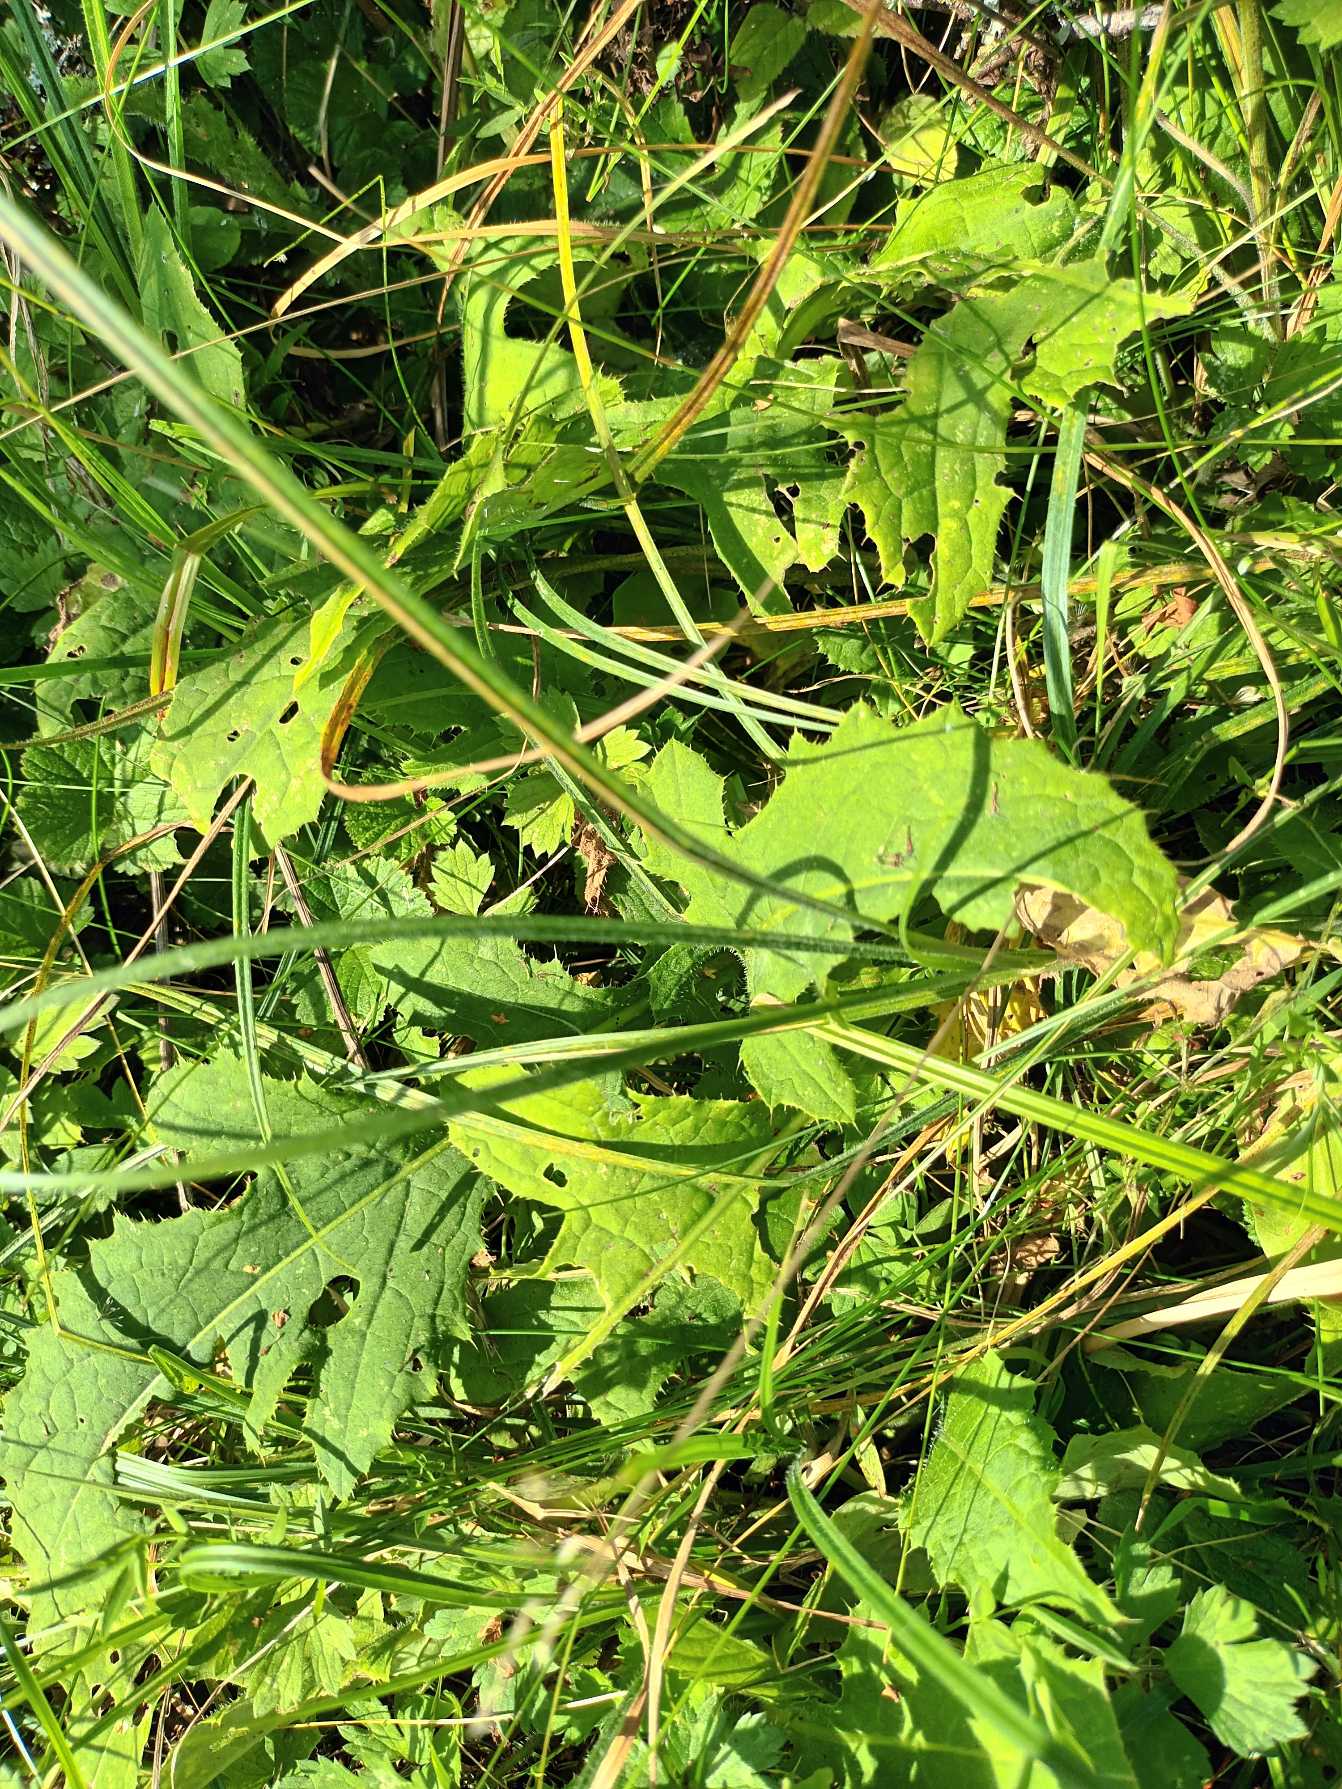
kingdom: Plantae
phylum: Tracheophyta
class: Magnoliopsida
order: Asterales
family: Asteraceae
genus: Cirsium
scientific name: Cirsium oleraceum
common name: Kål-tidsel
